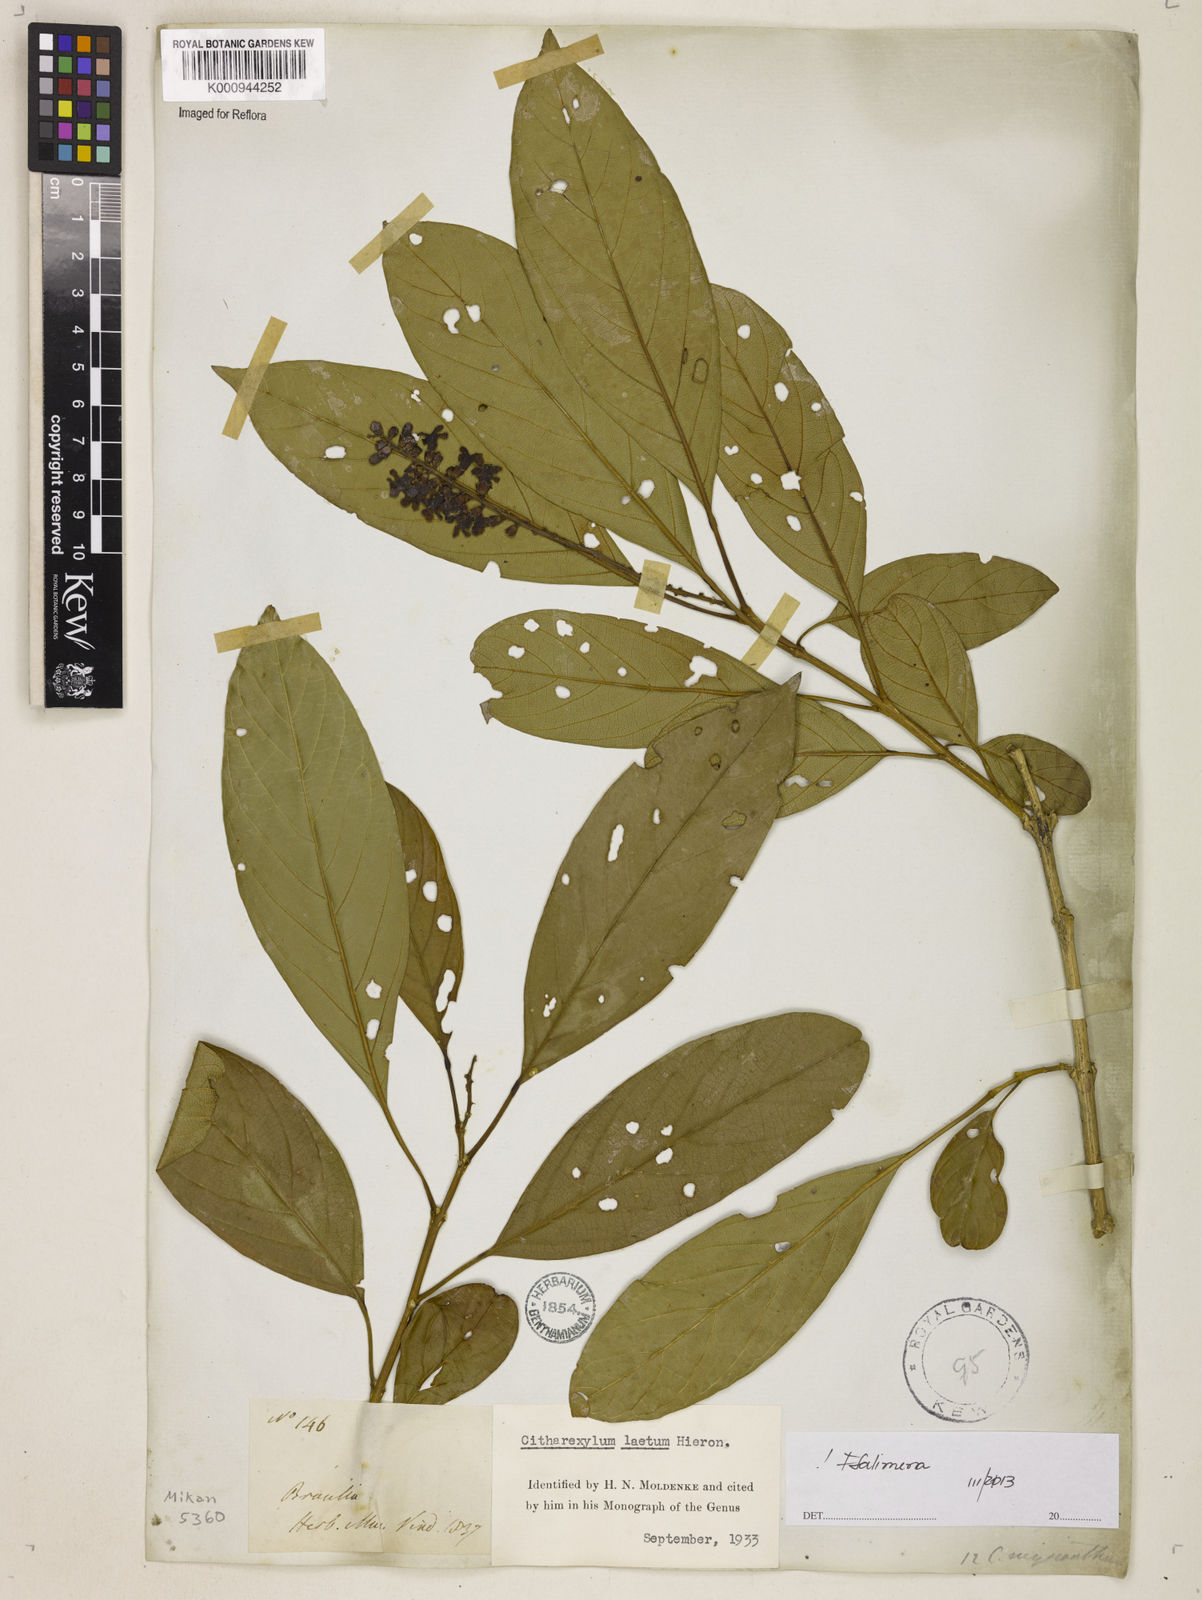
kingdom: Plantae
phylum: Tracheophyta
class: Magnoliopsida
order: Lamiales
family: Verbenaceae
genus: Citharexylum
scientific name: Citharexylum myrianthum
